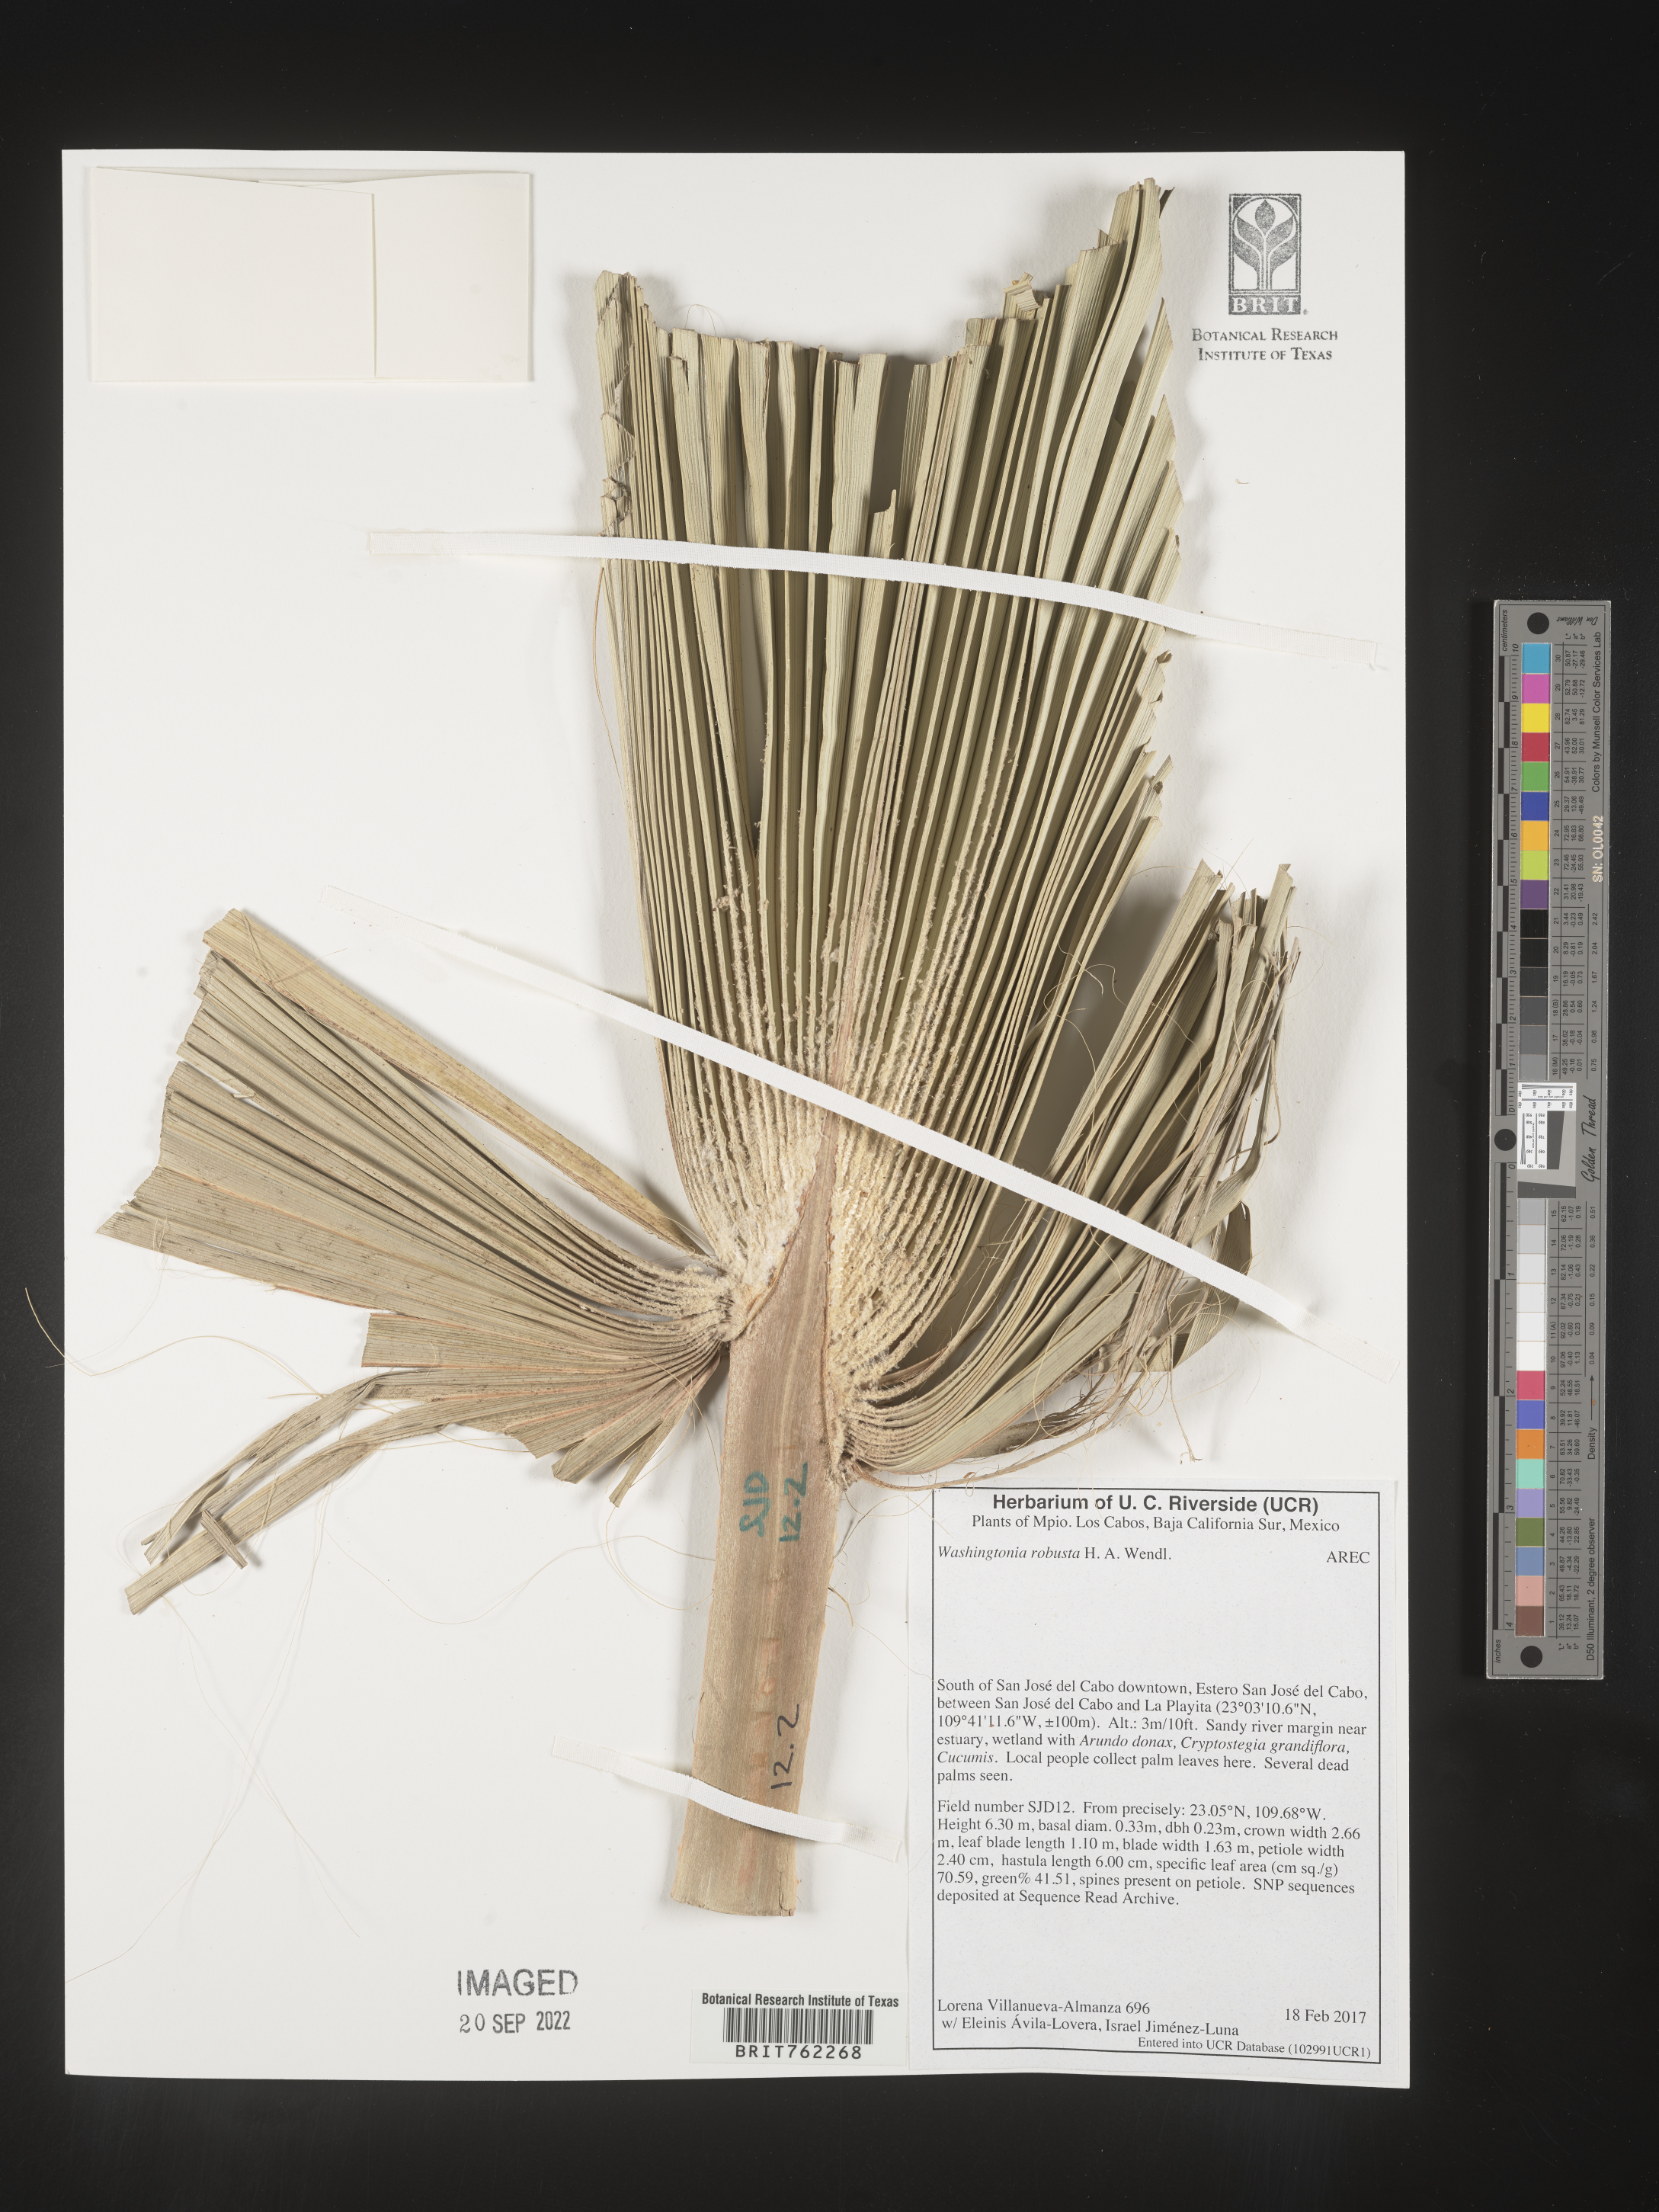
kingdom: Plantae
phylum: Tracheophyta
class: Liliopsida
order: Arecales
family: Arecaceae
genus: Washingtonia
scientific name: Washingtonia
